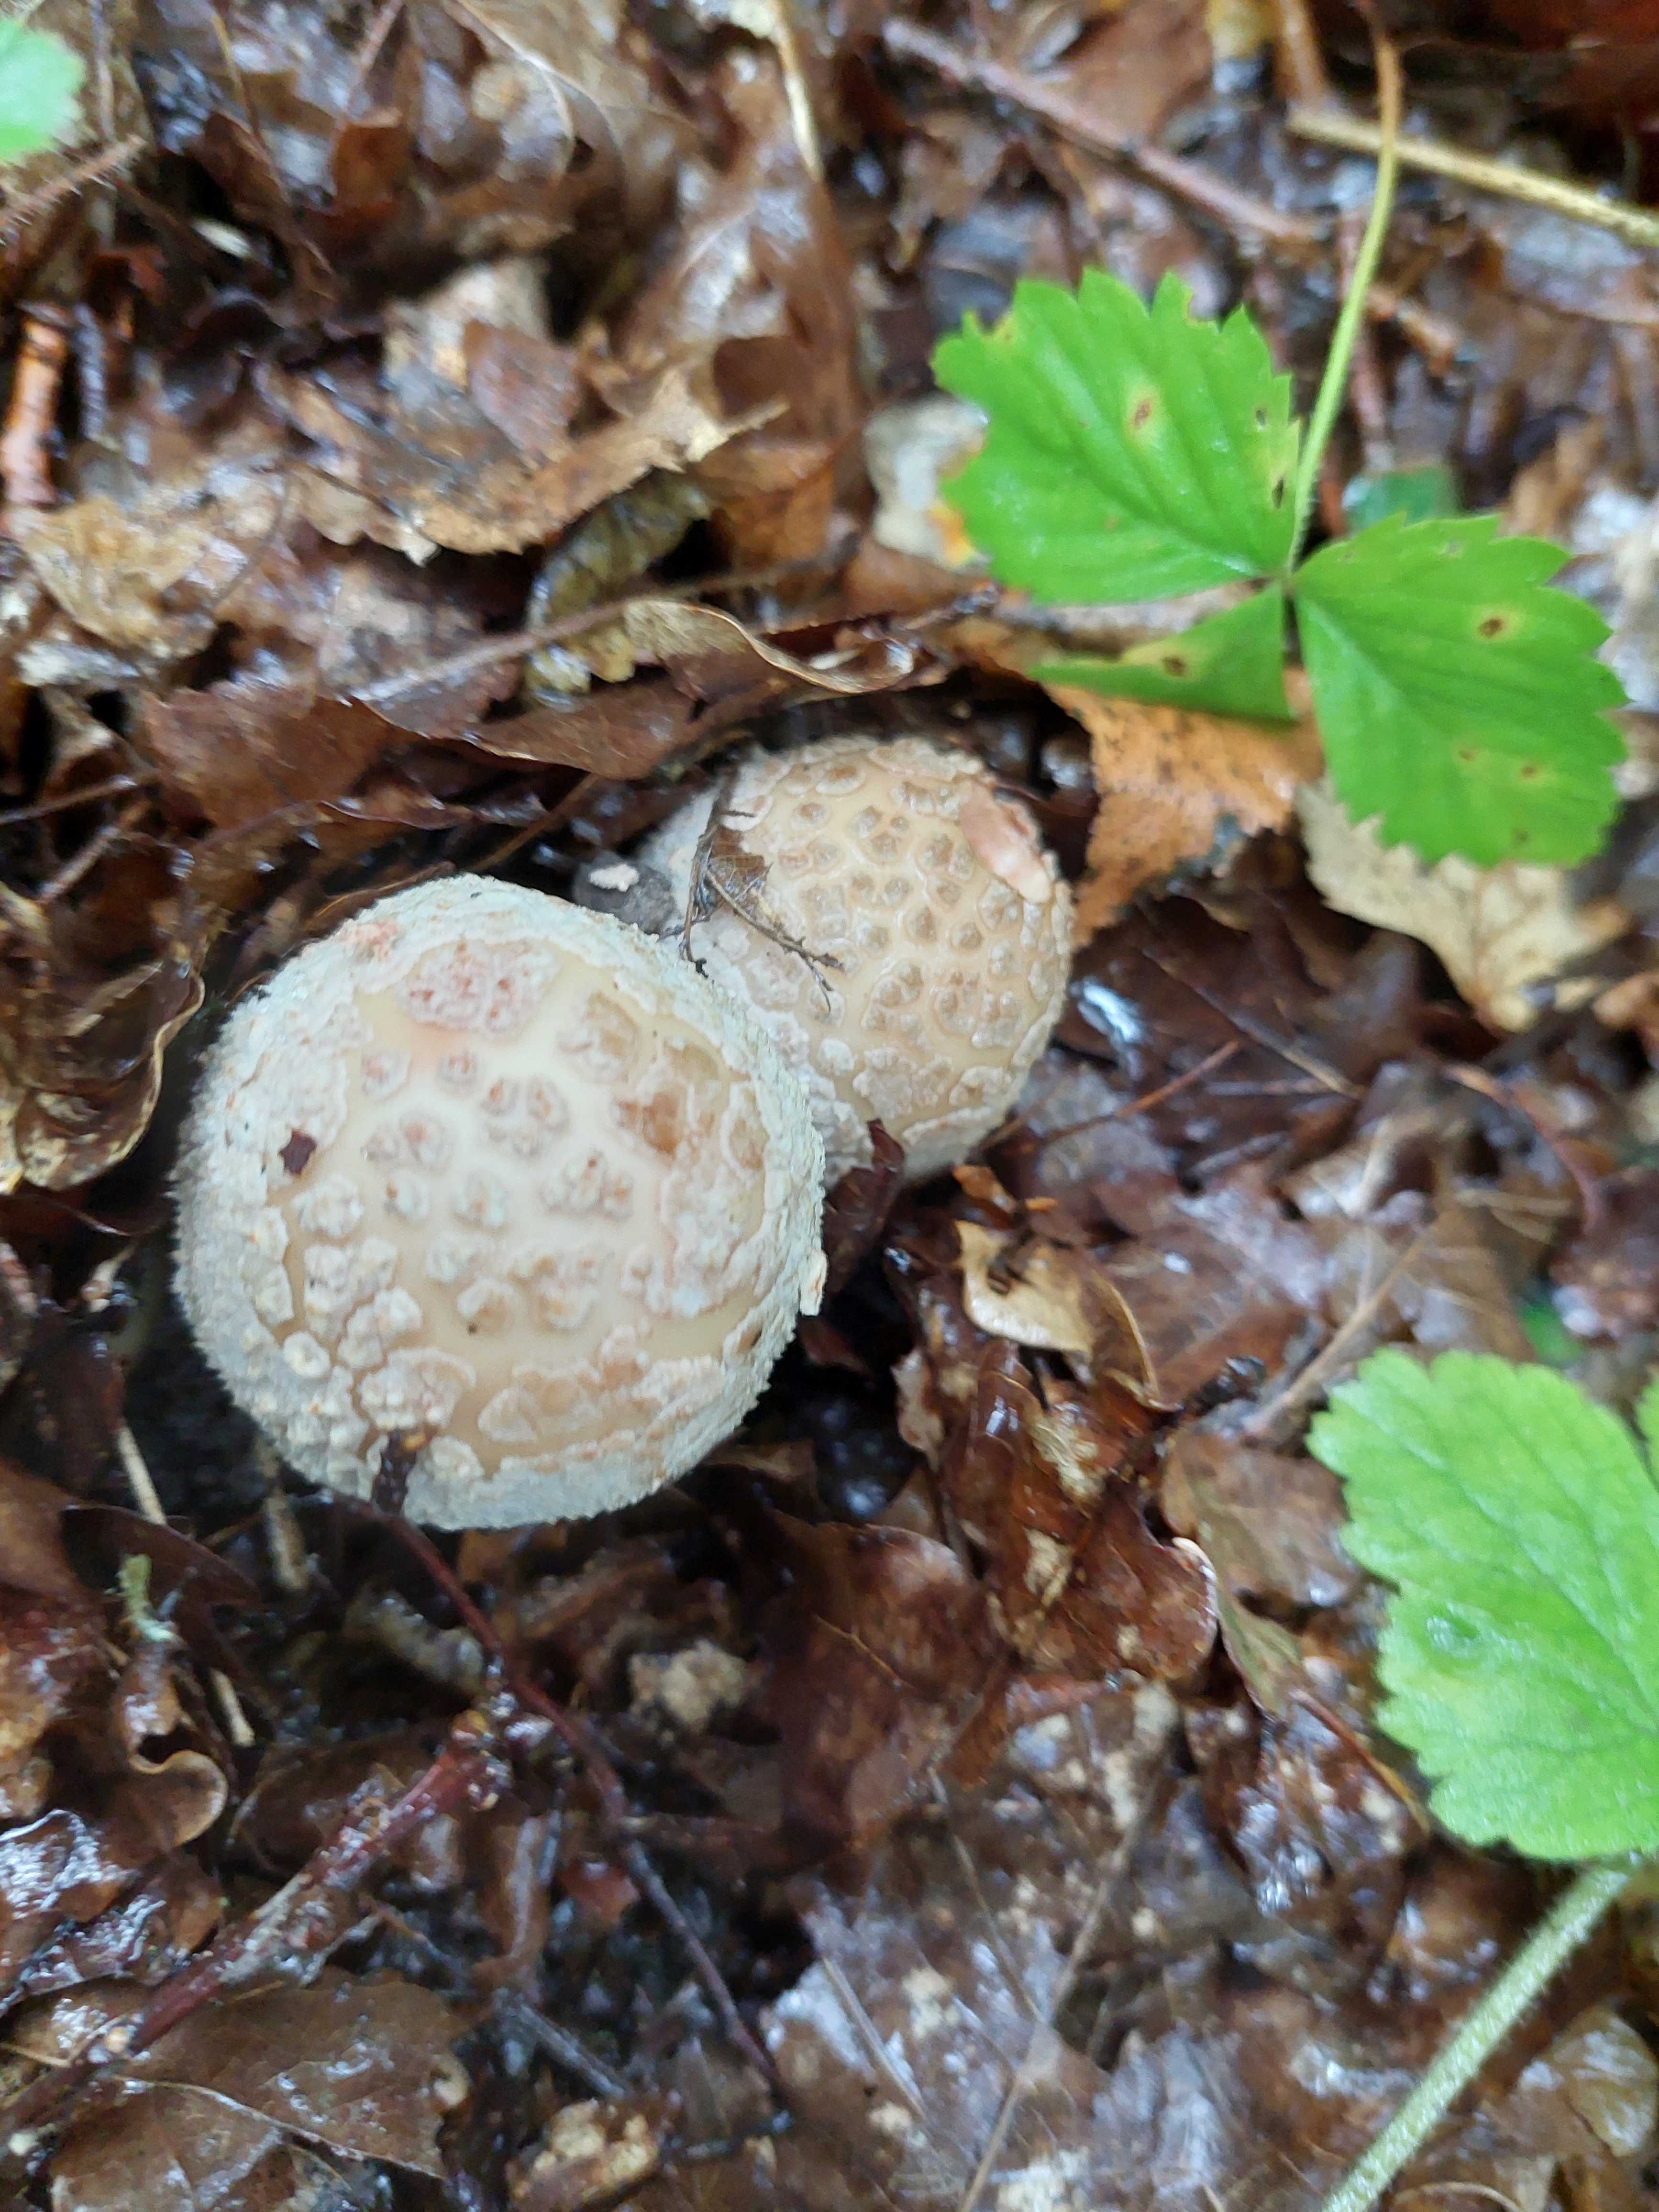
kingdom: Fungi
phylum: Basidiomycota
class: Agaricomycetes
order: Agaricales
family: Amanitaceae
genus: Amanita
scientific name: Amanita rubescens
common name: rødmende fluesvamp
